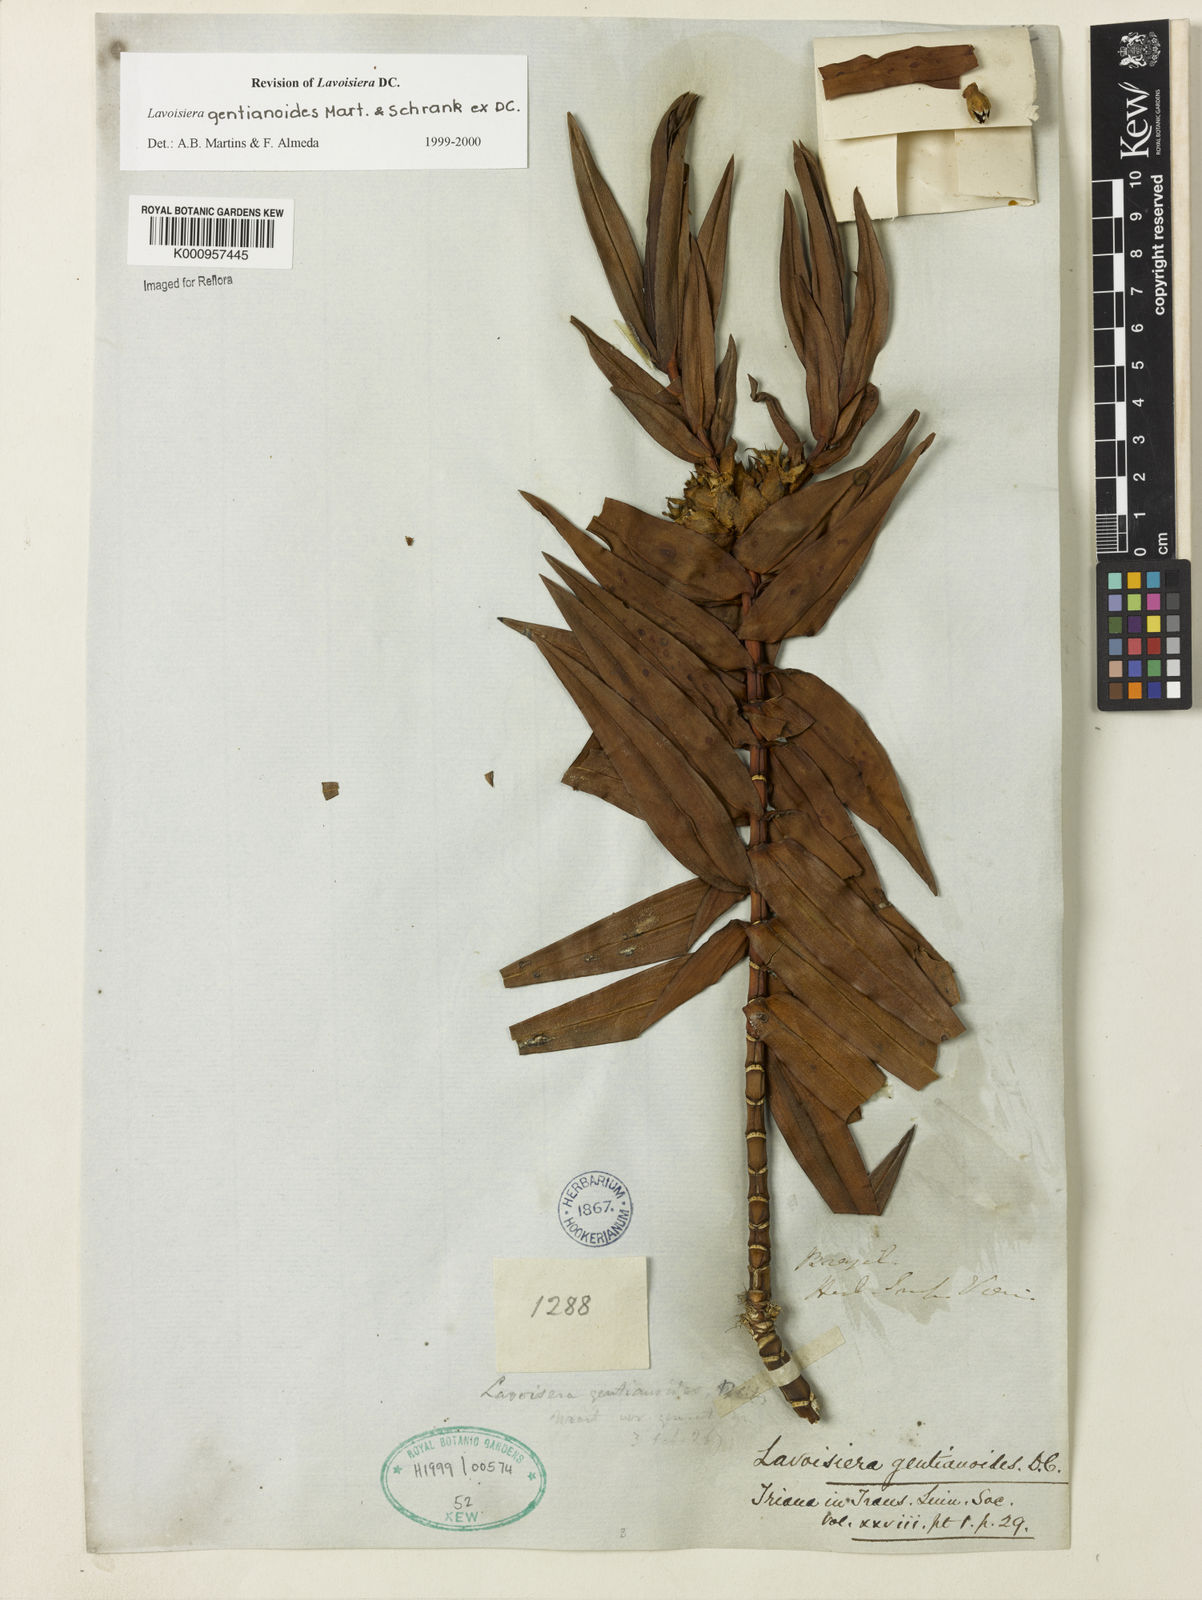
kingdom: Plantae
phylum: Tracheophyta
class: Magnoliopsida
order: Myrtales
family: Melastomataceae
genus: Microlicia
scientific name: Microlicia gentianoides
